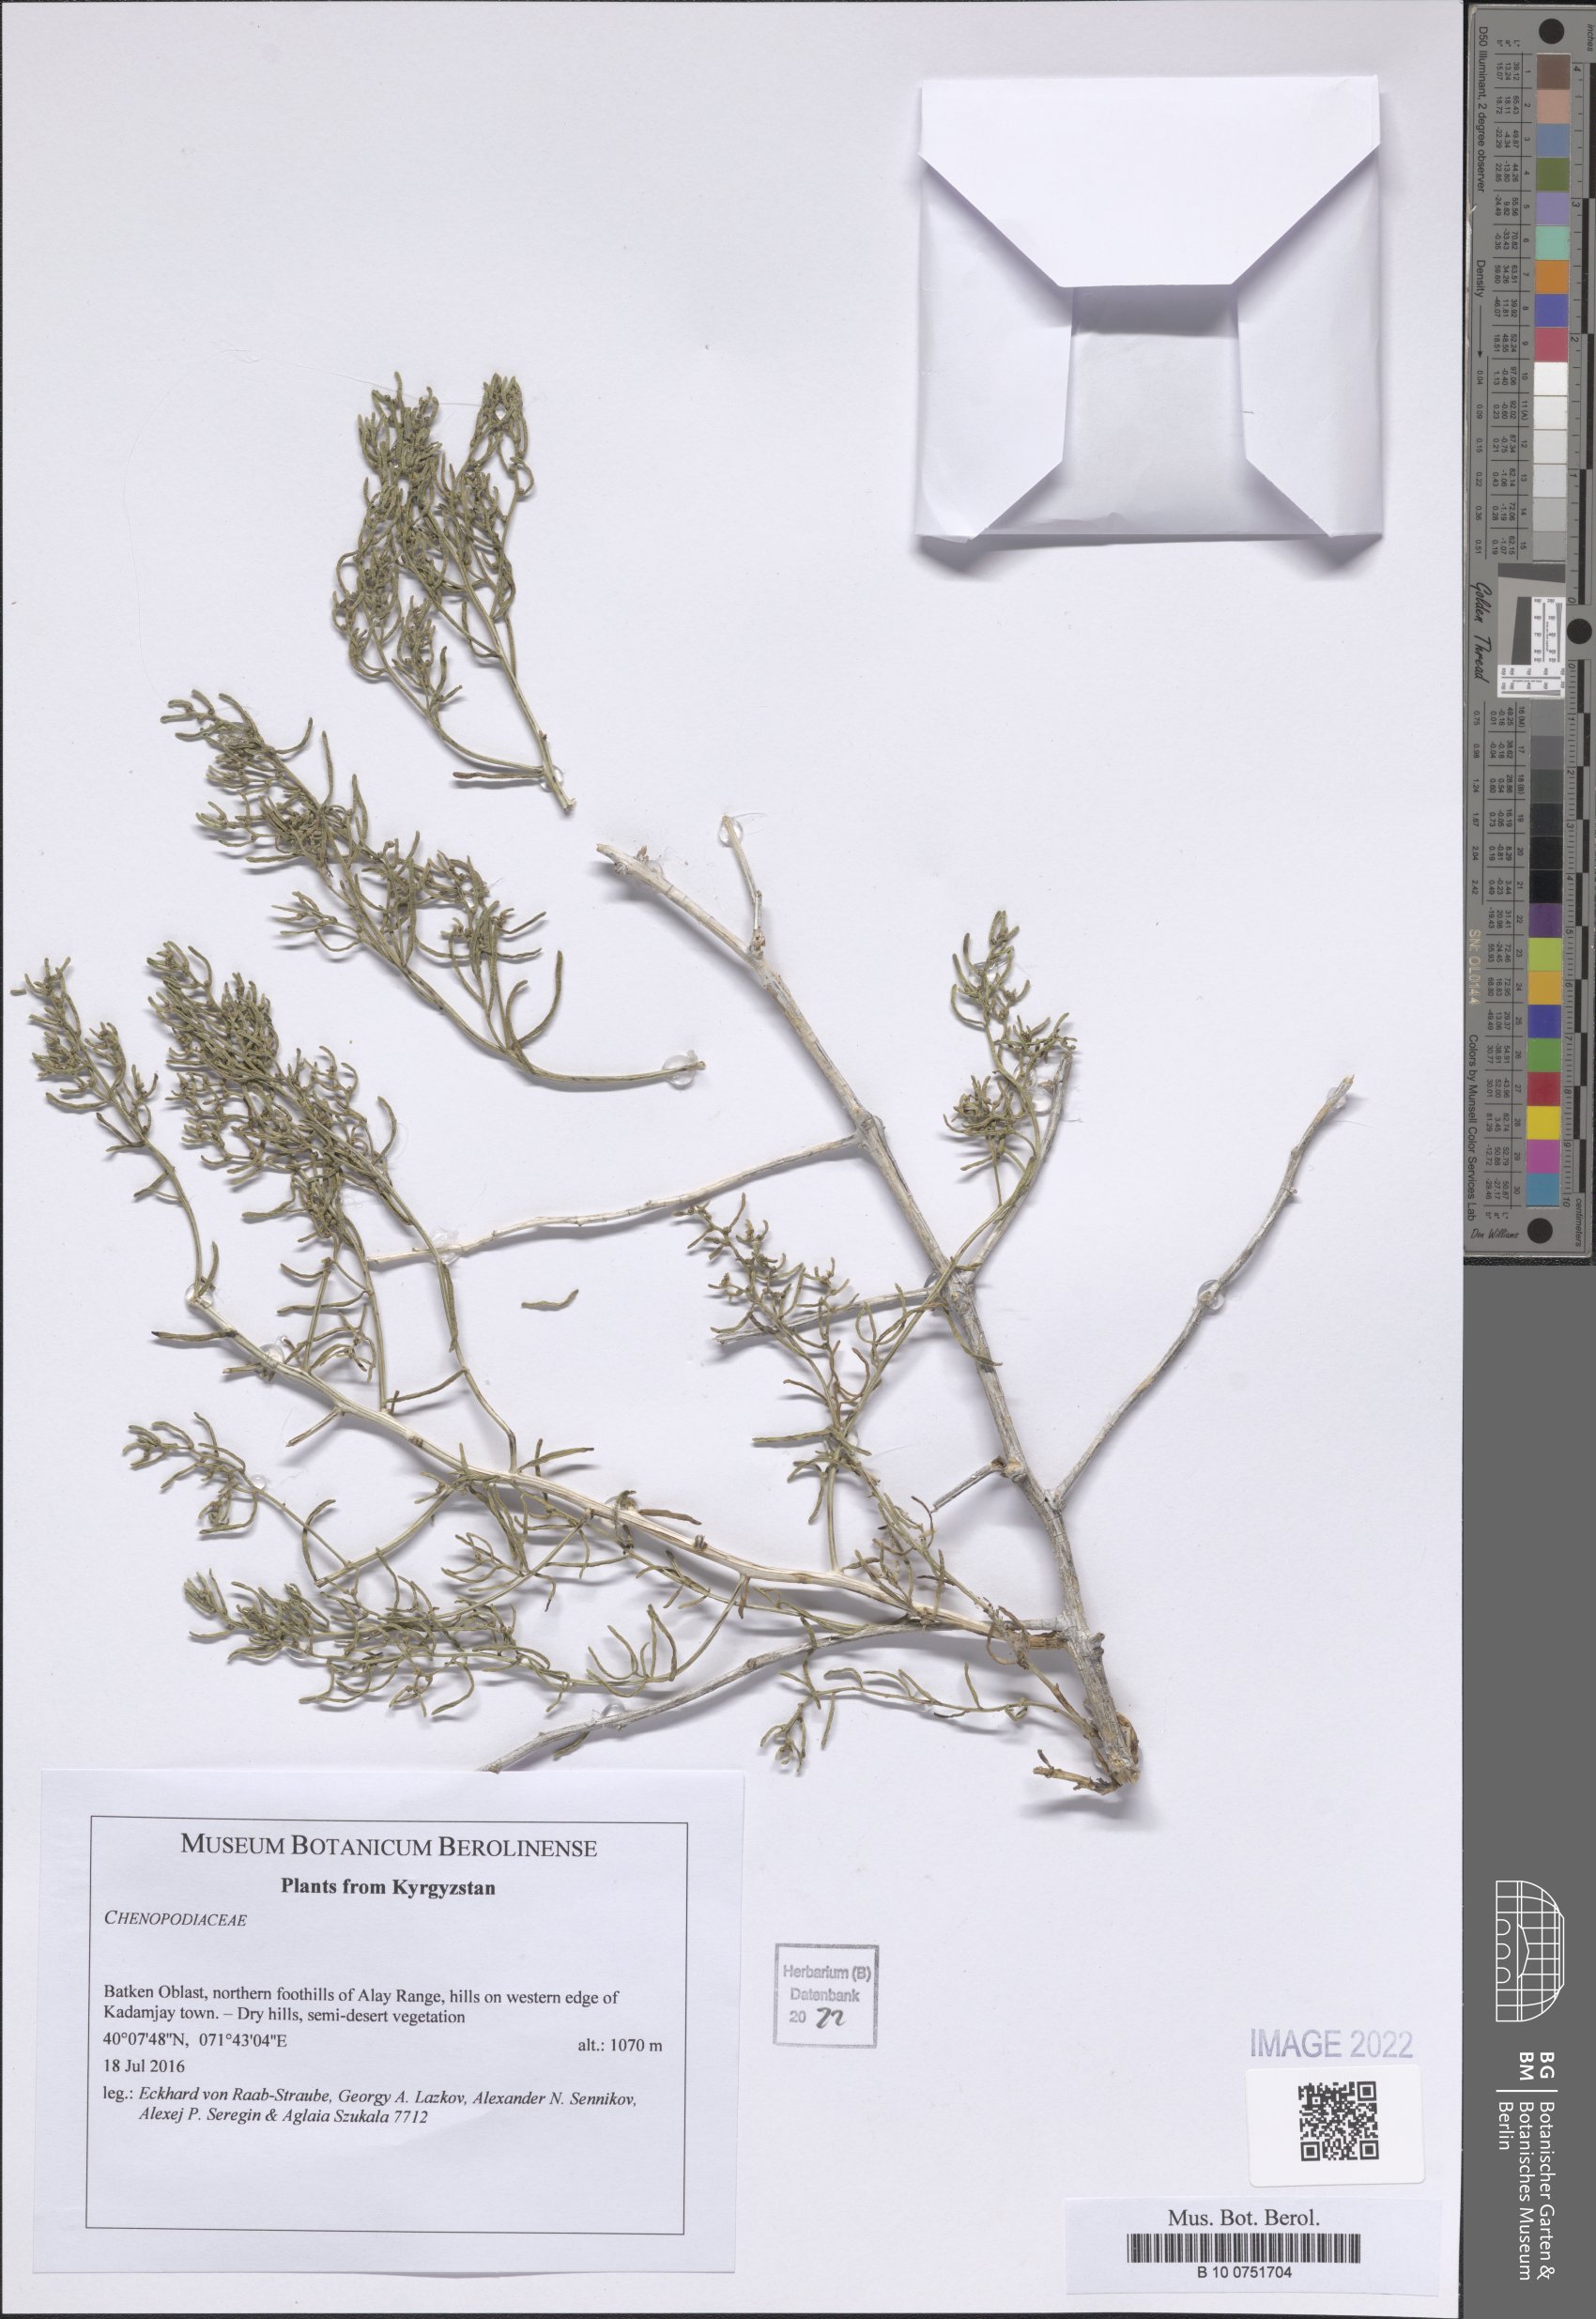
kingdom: Plantae
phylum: Tracheophyta
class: Magnoliopsida
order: Caryophyllales
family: Amaranthaceae
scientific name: Amaranthaceae
